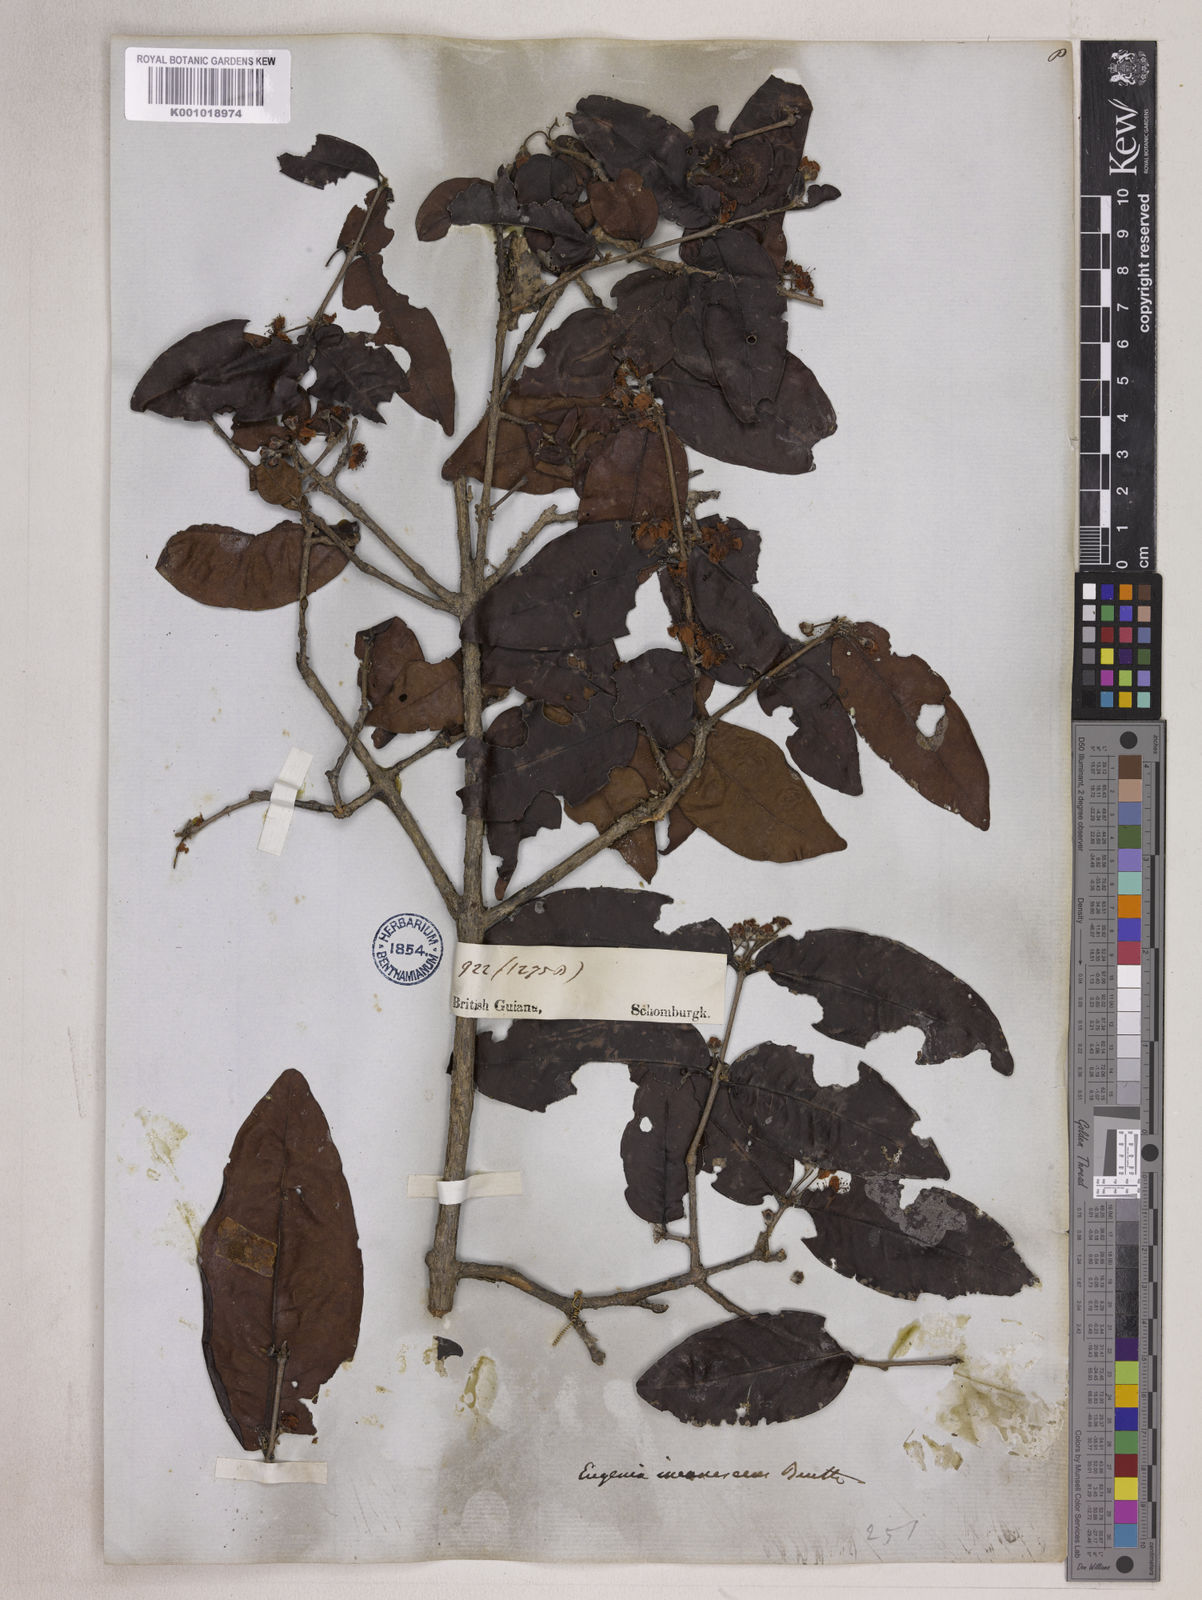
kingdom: Plantae
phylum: Tracheophyta
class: Magnoliopsida
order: Myrtales
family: Myrtaceae
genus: Eugenia
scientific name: Eugenia incanescens
